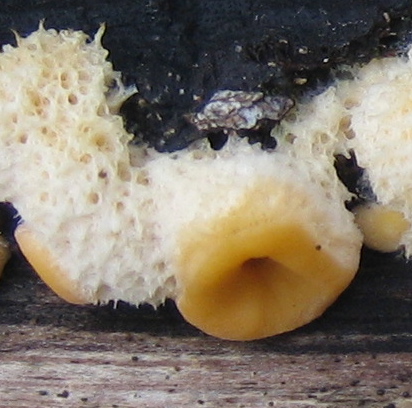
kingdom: Fungi
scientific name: Fungi
